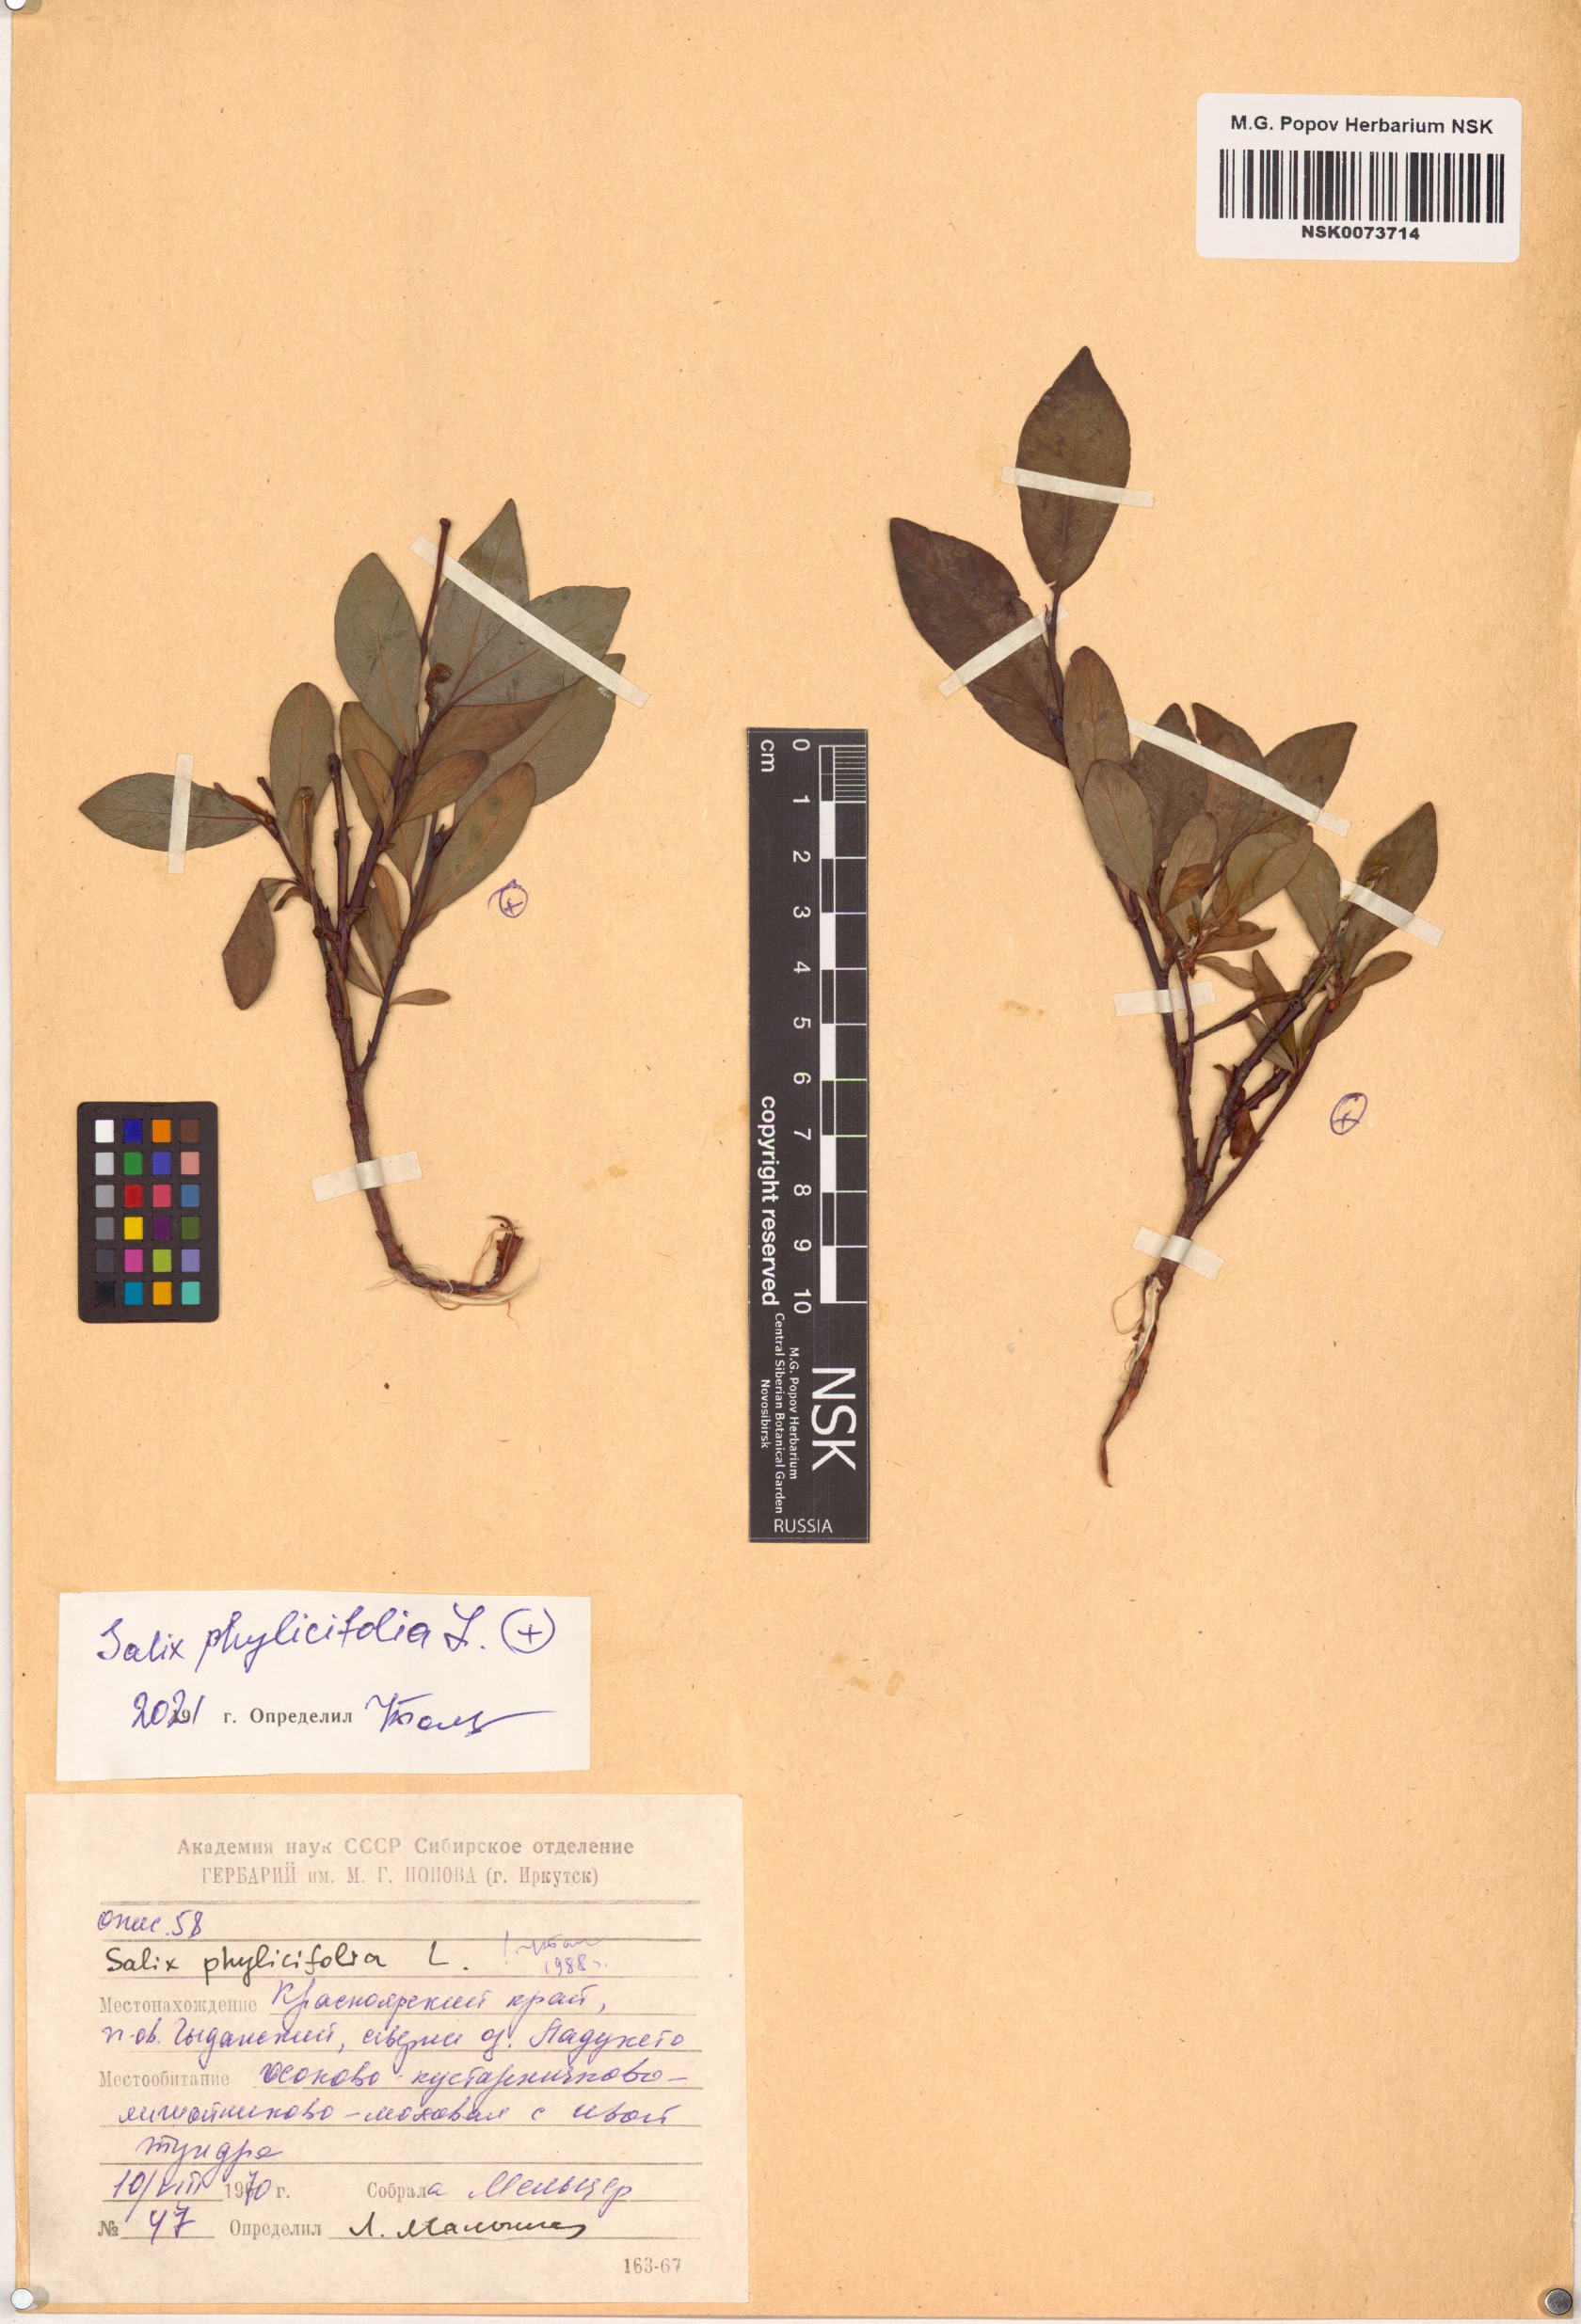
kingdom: Plantae
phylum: Tracheophyta
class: Magnoliopsida
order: Malpighiales
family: Salicaceae
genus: Salix
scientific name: Salix phylicifolia
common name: Tea-leaved willow
